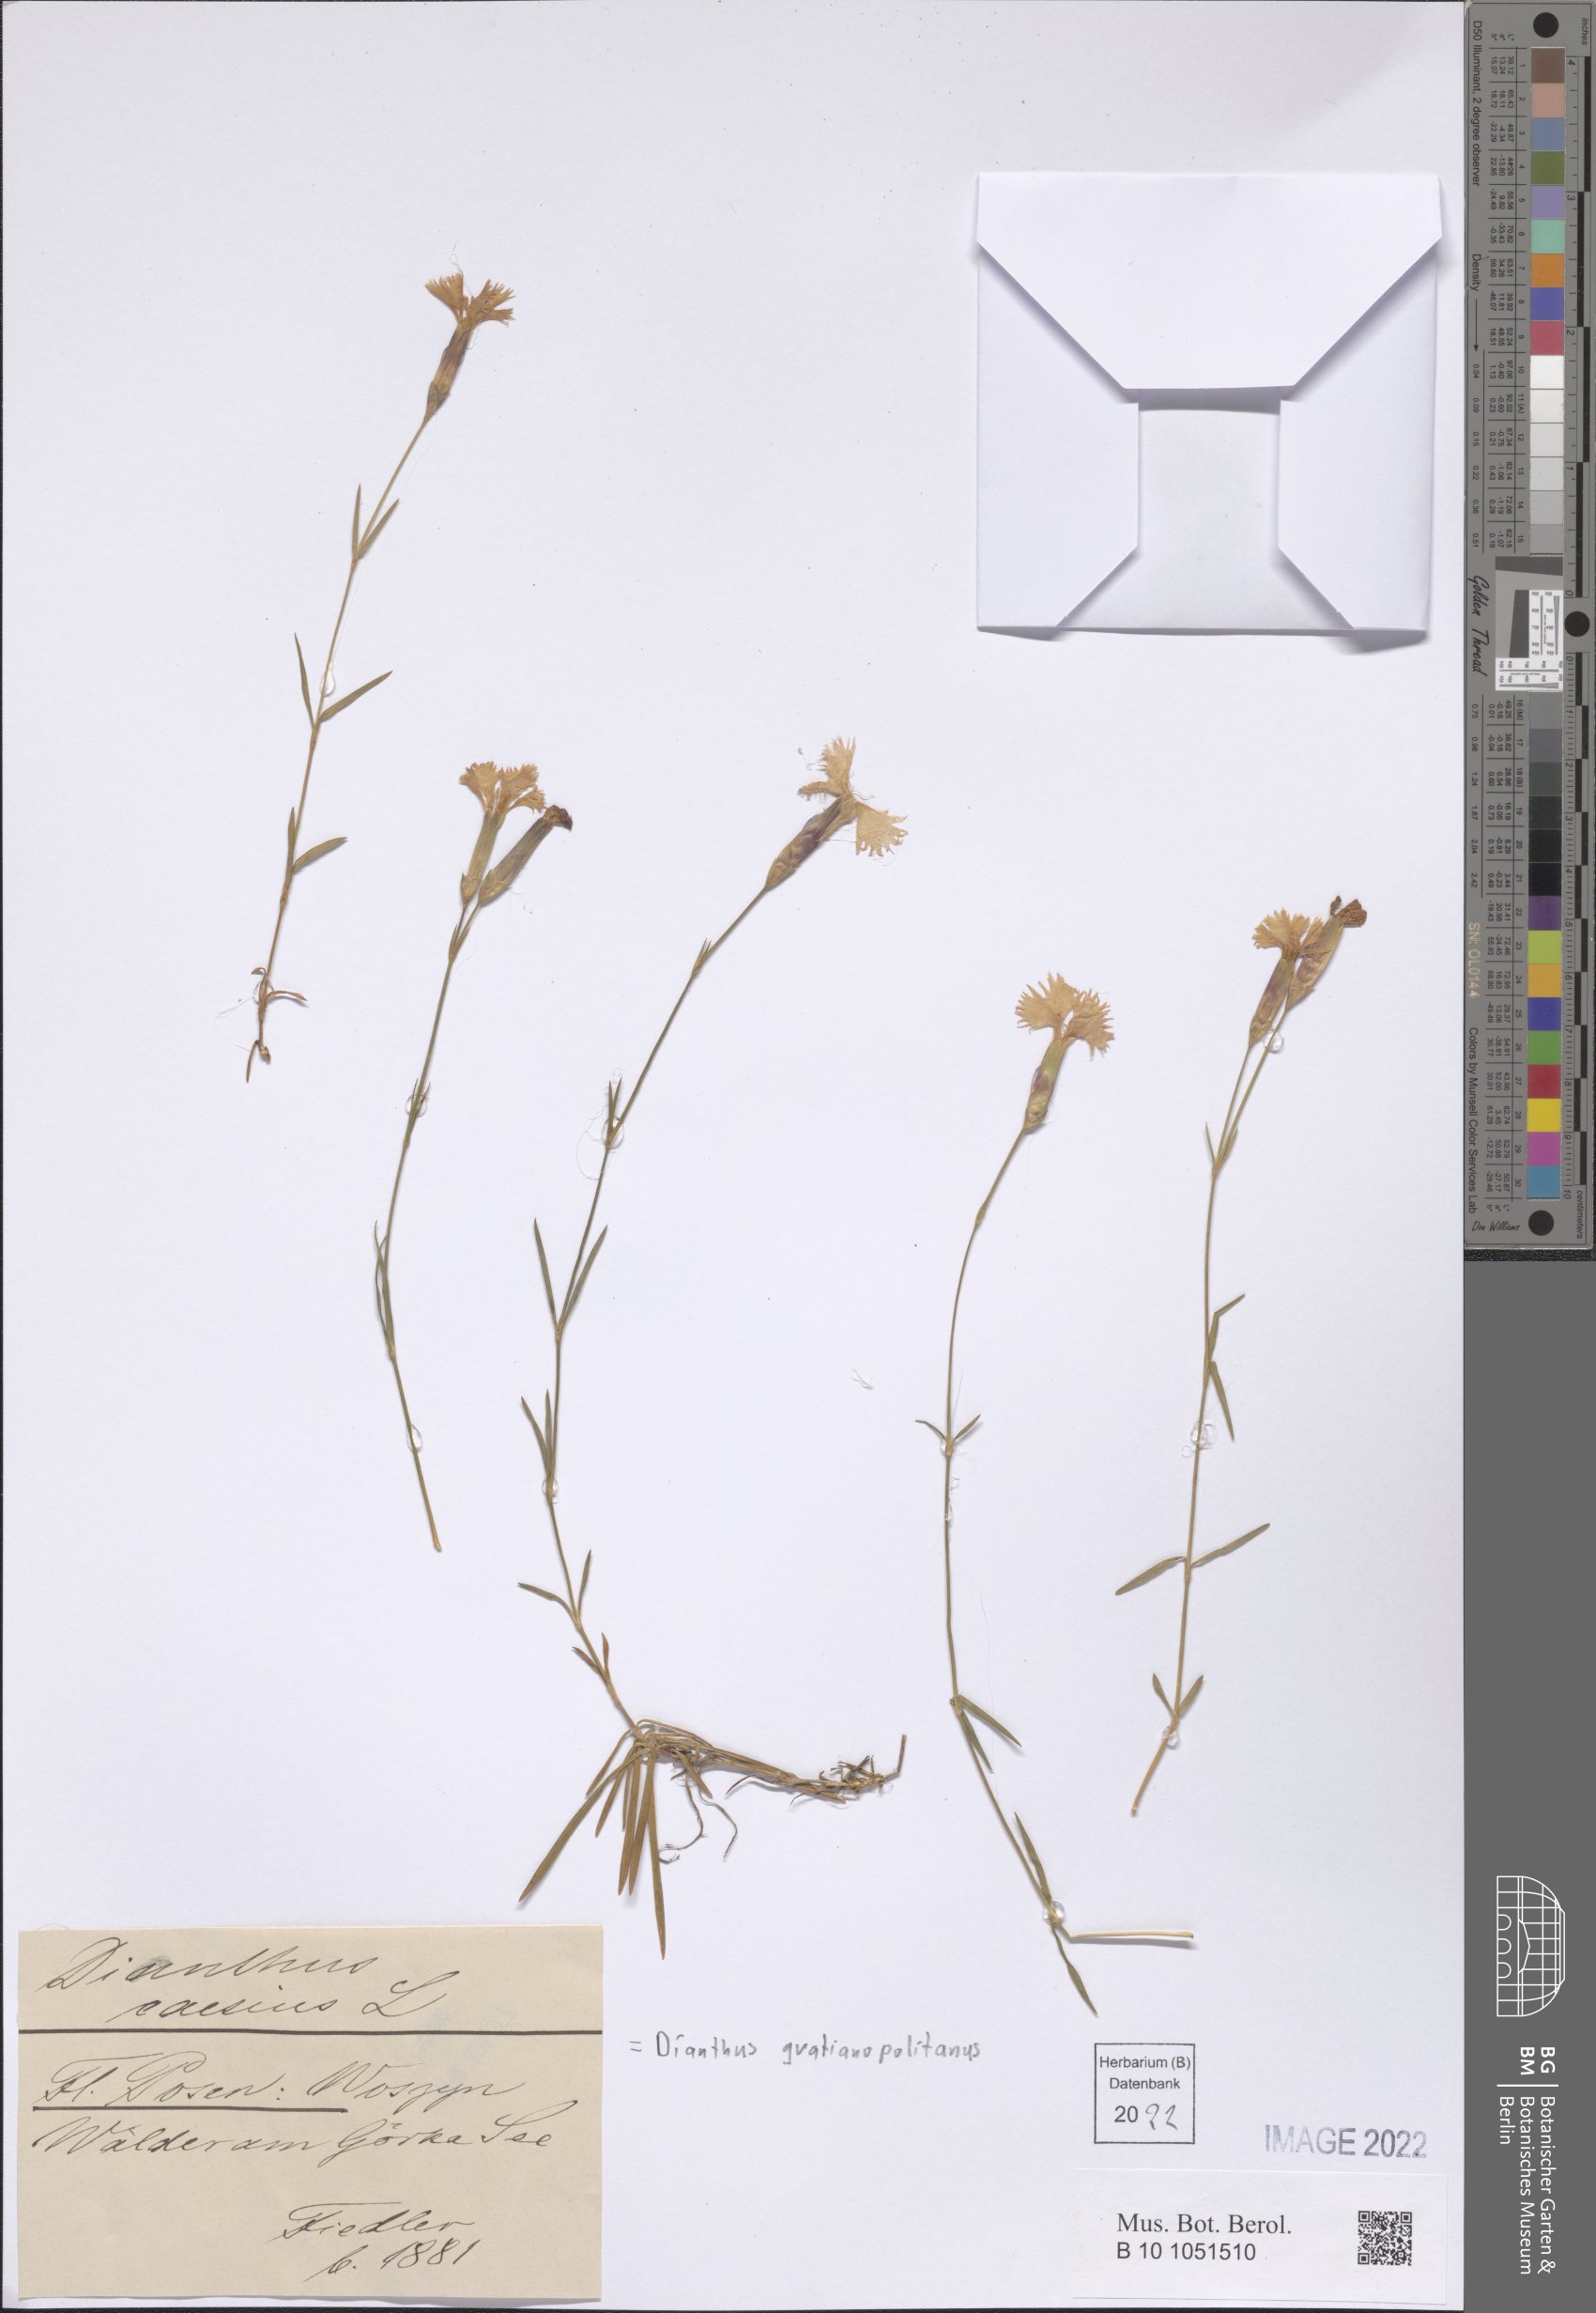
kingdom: Plantae
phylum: Tracheophyta
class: Magnoliopsida
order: Caryophyllales
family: Caryophyllaceae
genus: Dianthus
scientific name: Dianthus gratianopolitanus
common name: Cheddar pink
